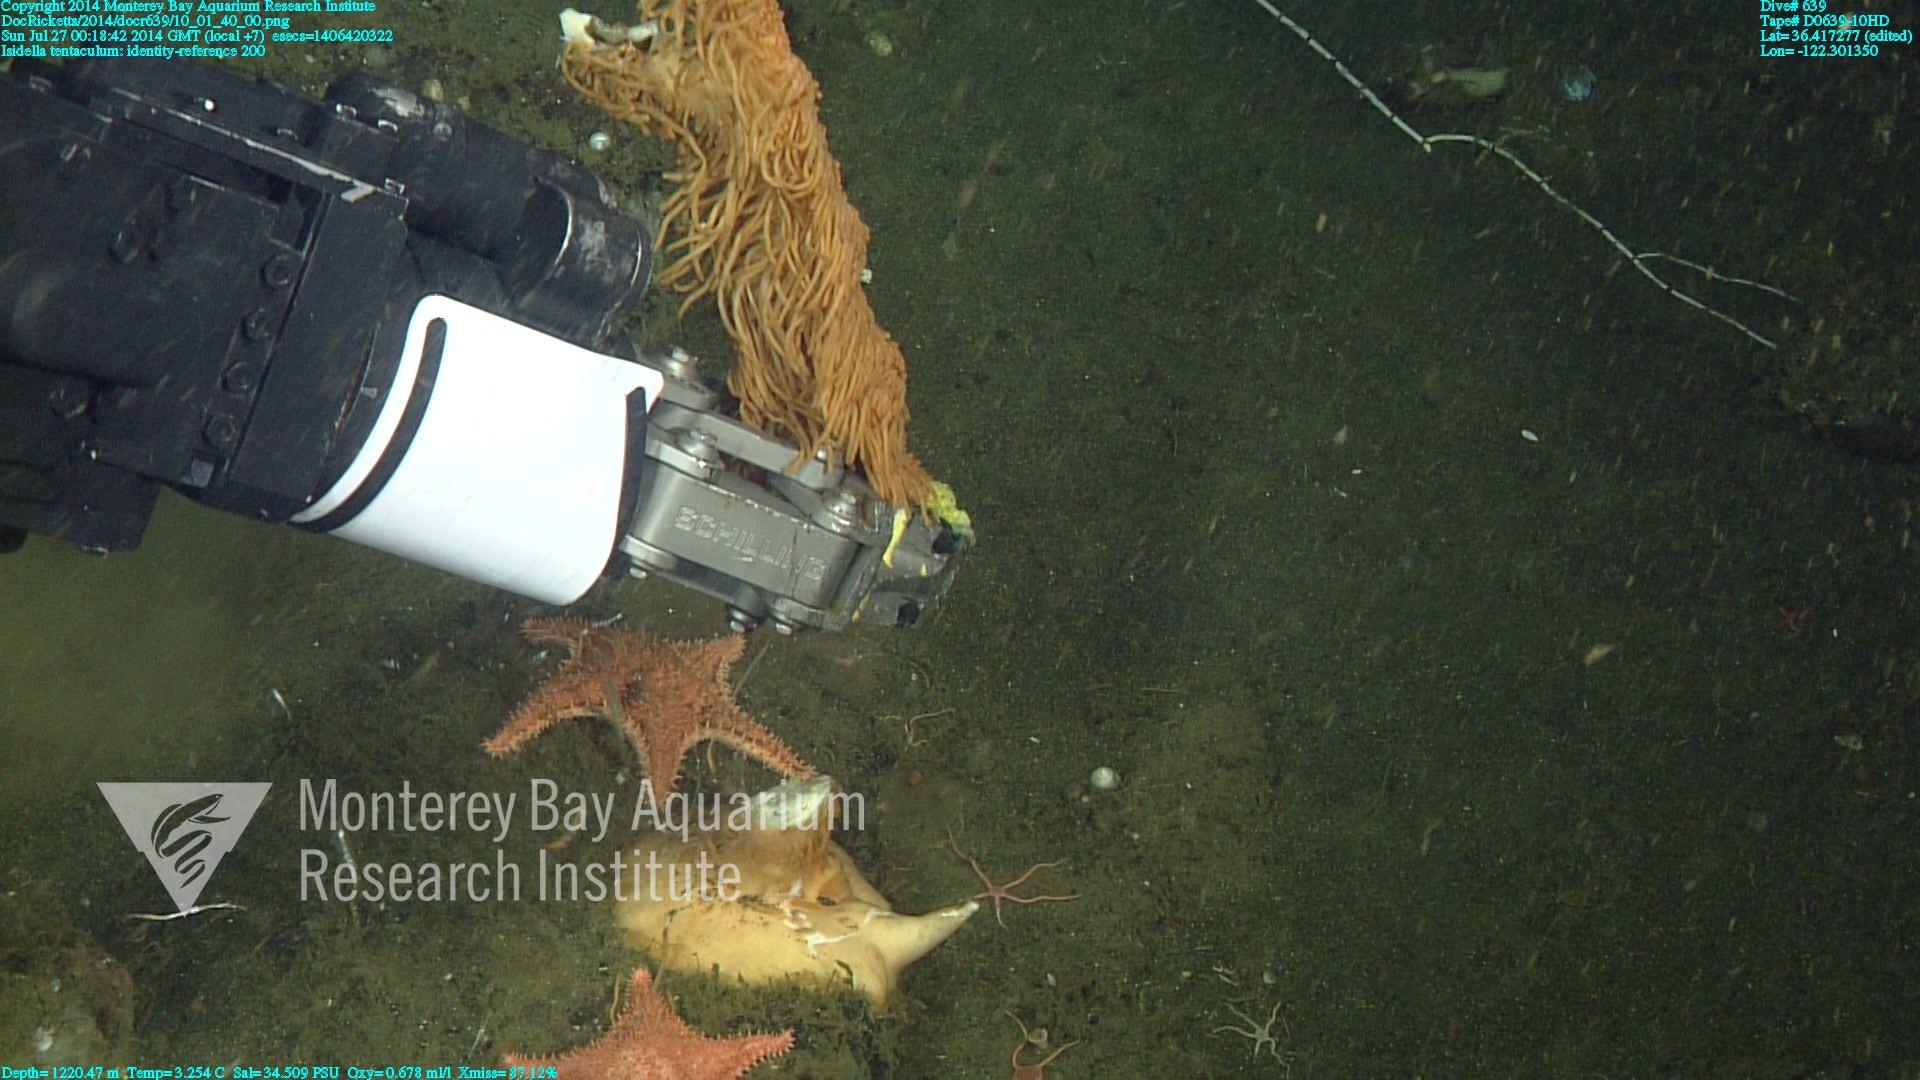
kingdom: Animalia
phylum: Cnidaria
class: Anthozoa
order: Scleralcyonacea
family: Keratoisididae
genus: Isidella
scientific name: Isidella tentaculum
